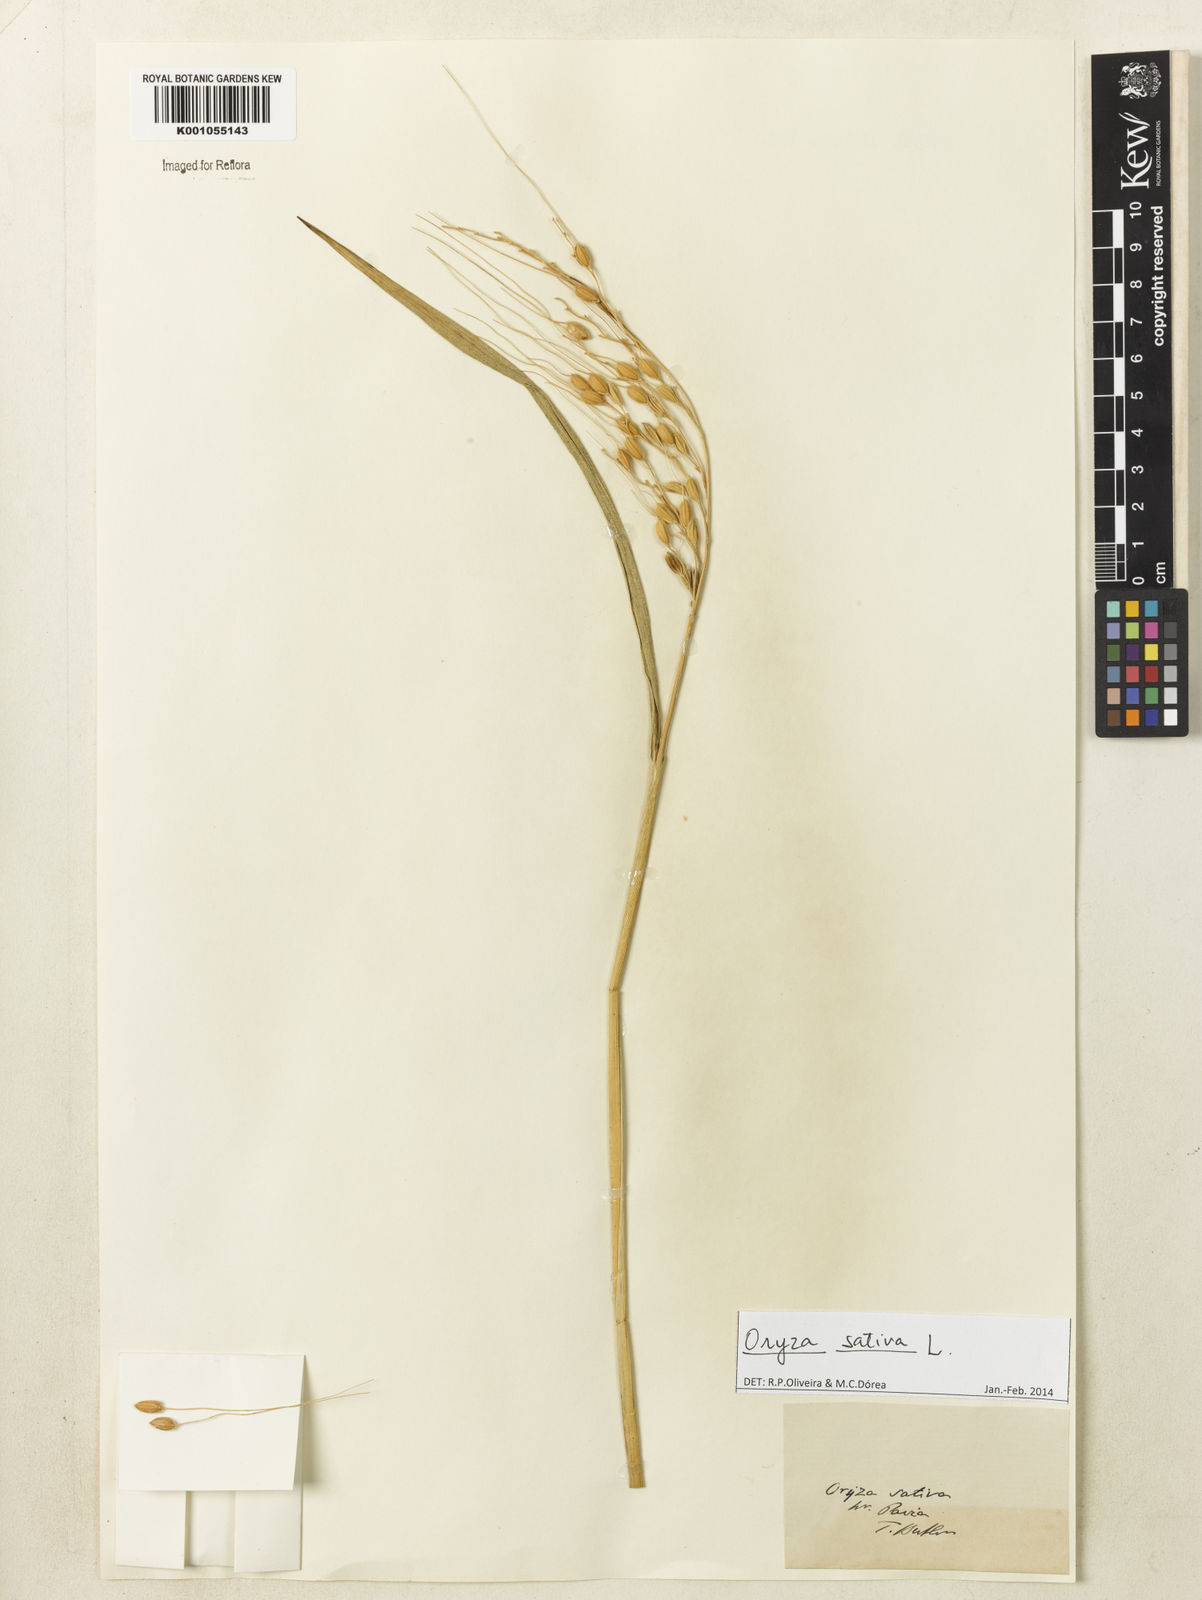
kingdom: Plantae
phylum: Tracheophyta
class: Liliopsida
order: Poales
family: Poaceae
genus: Oryza
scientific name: Oryza sativa
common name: Rice
